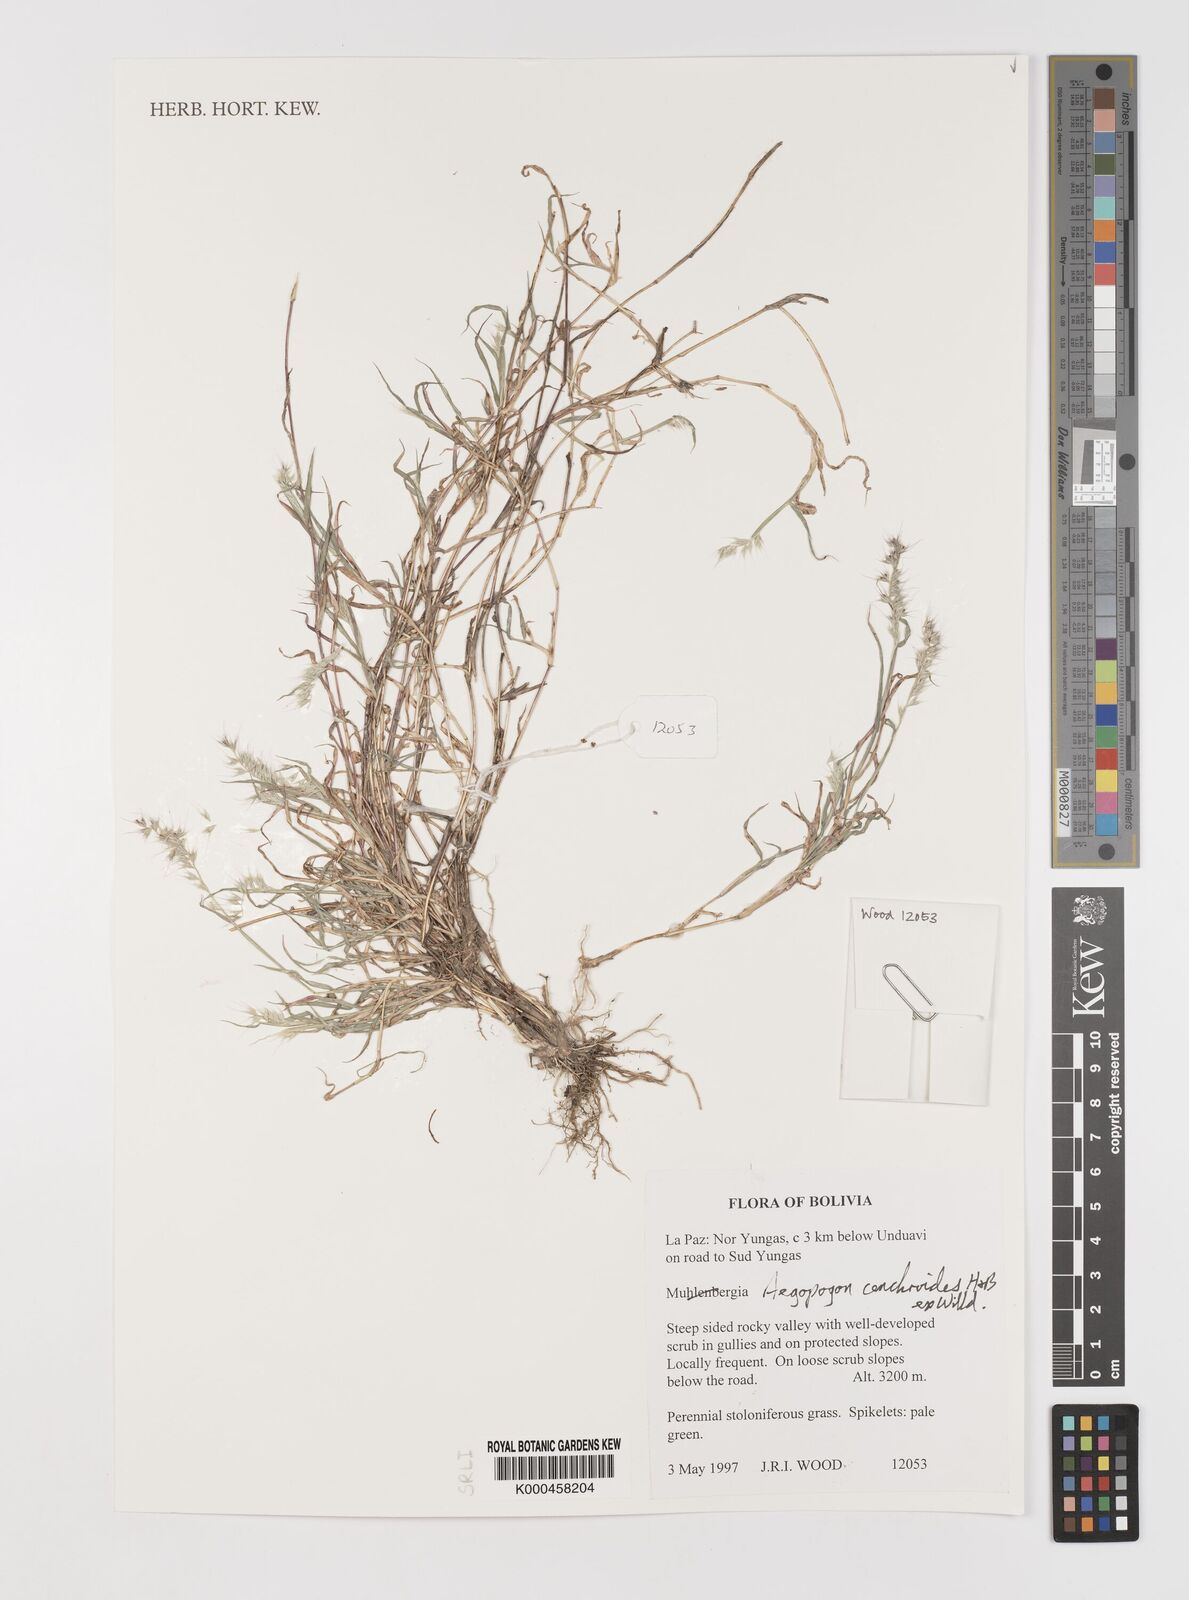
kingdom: Plantae
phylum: Tracheophyta
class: Liliopsida
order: Poales
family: Poaceae
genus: Muhlenbergia
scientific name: Muhlenbergia
